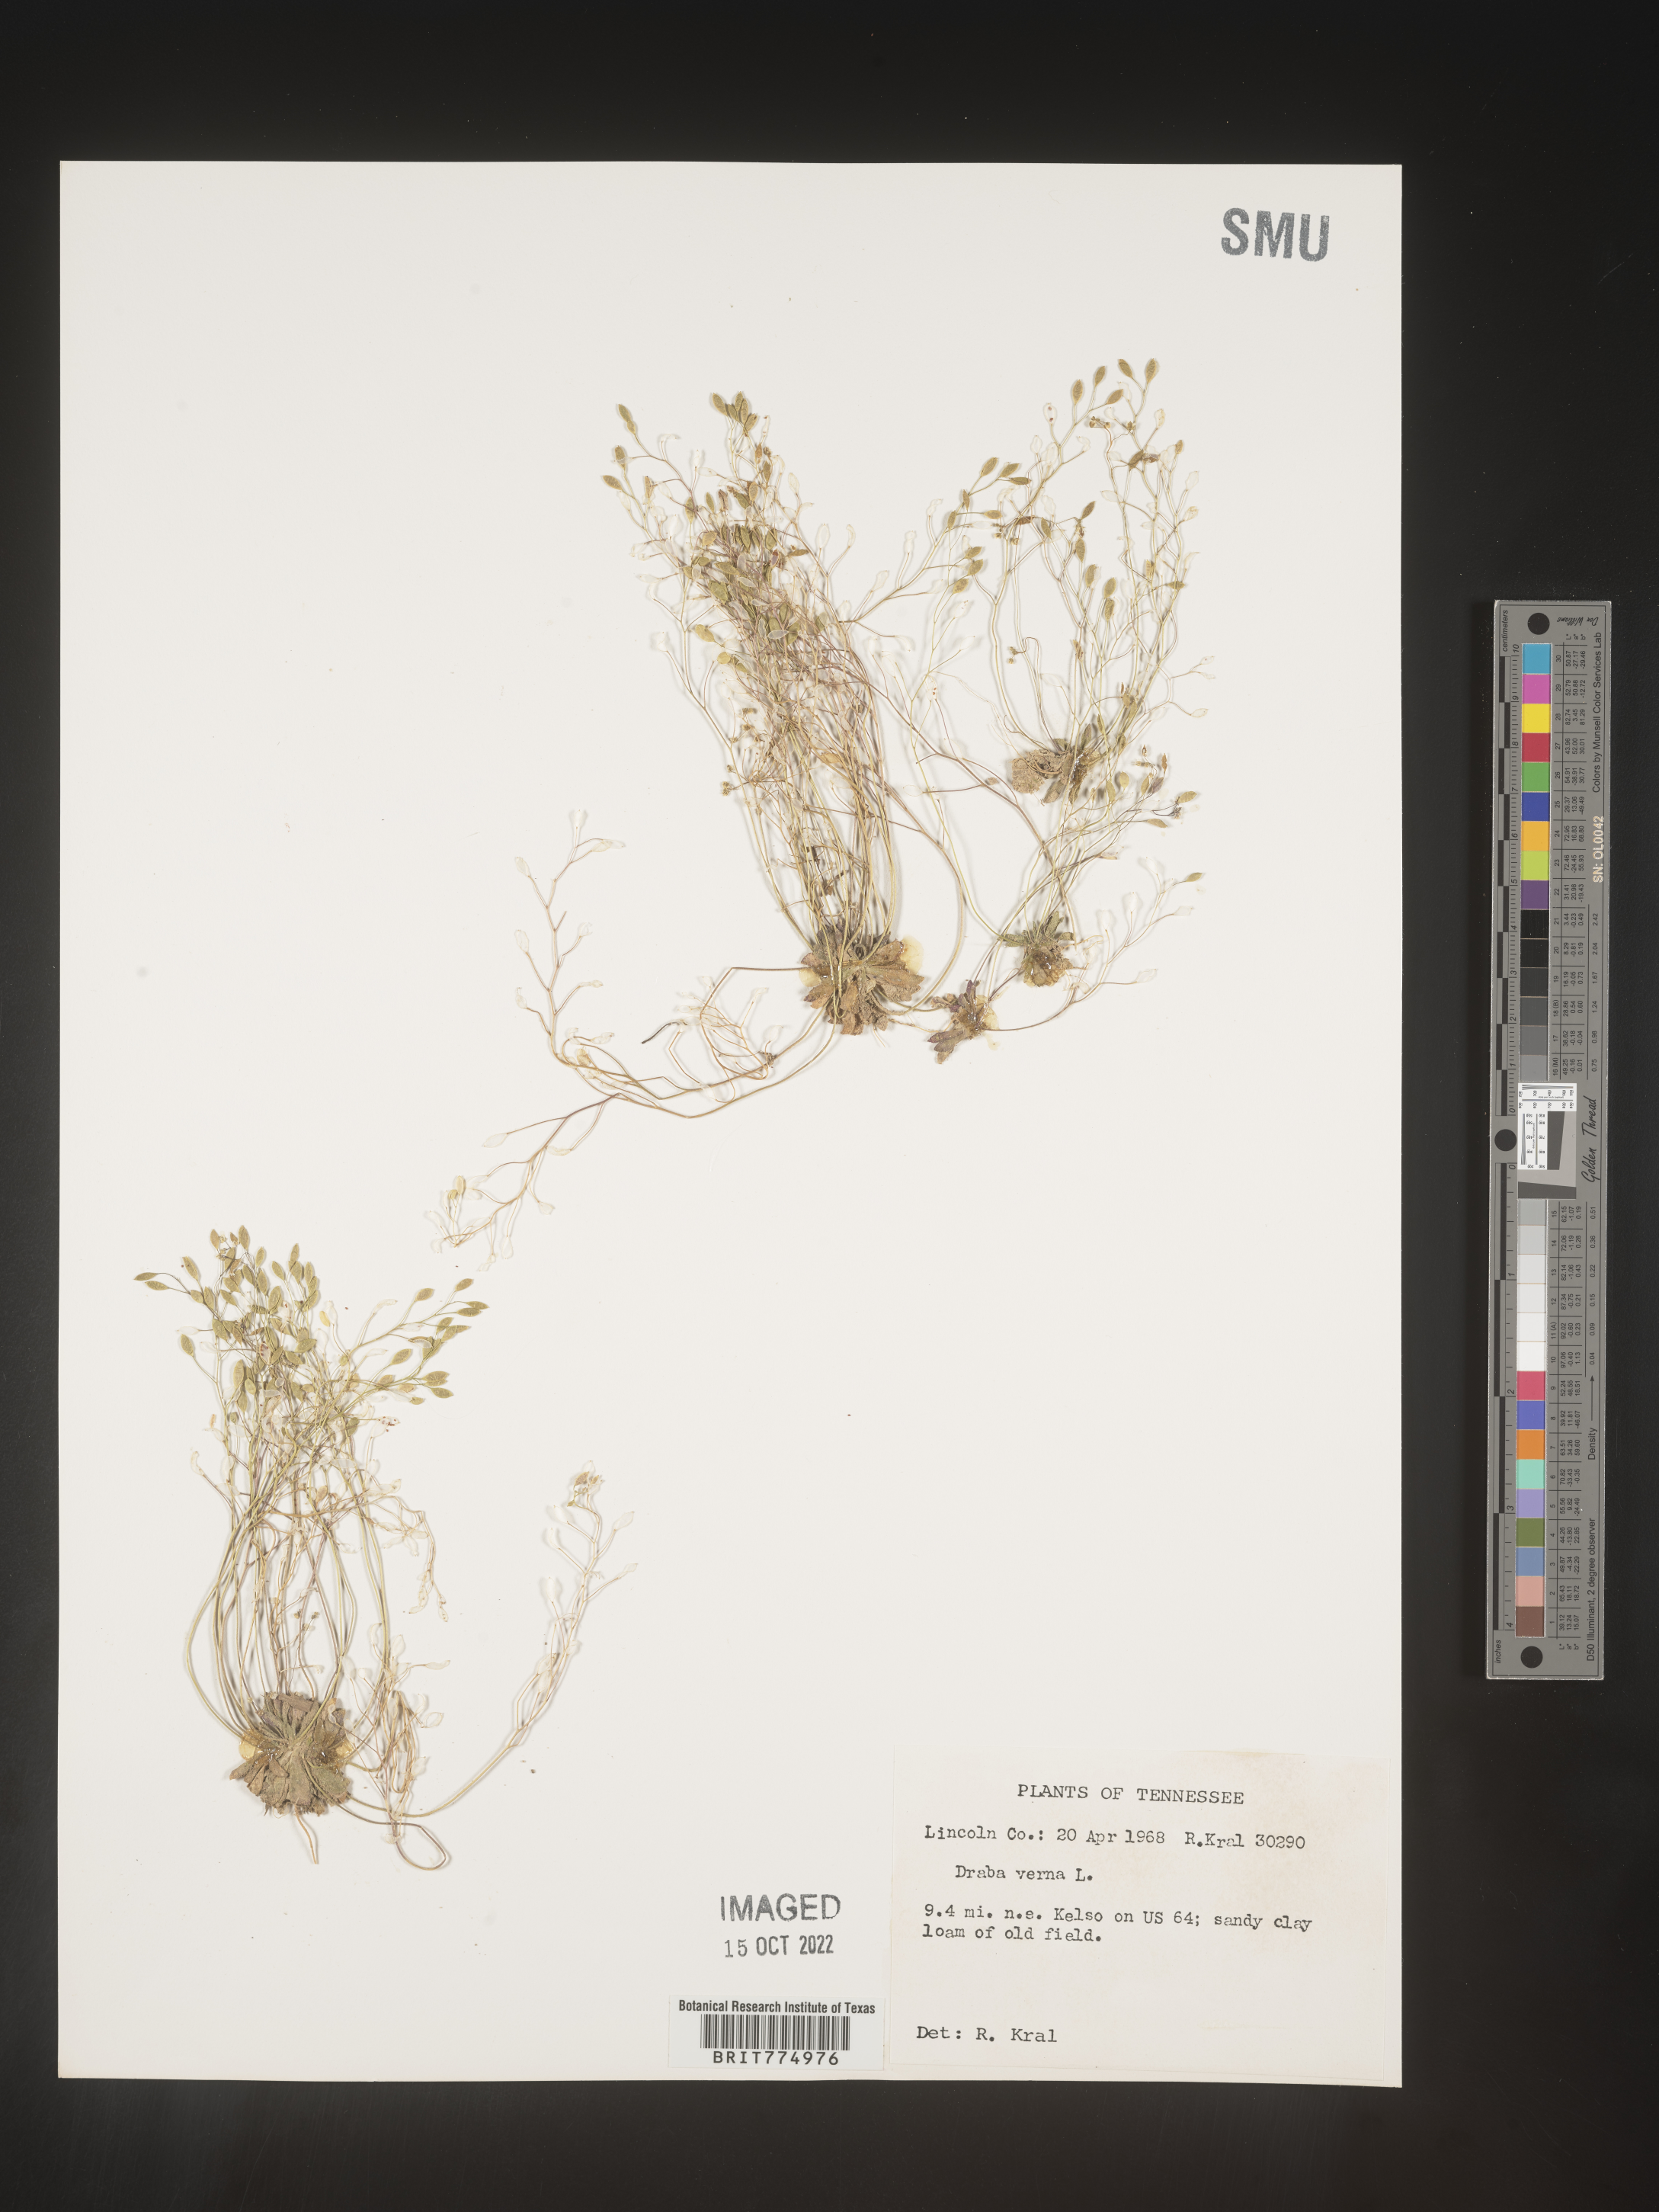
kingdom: Plantae
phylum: Tracheophyta
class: Magnoliopsida
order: Brassicales
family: Brassicaceae
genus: Draba
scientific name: Draba verna
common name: Spring draba
